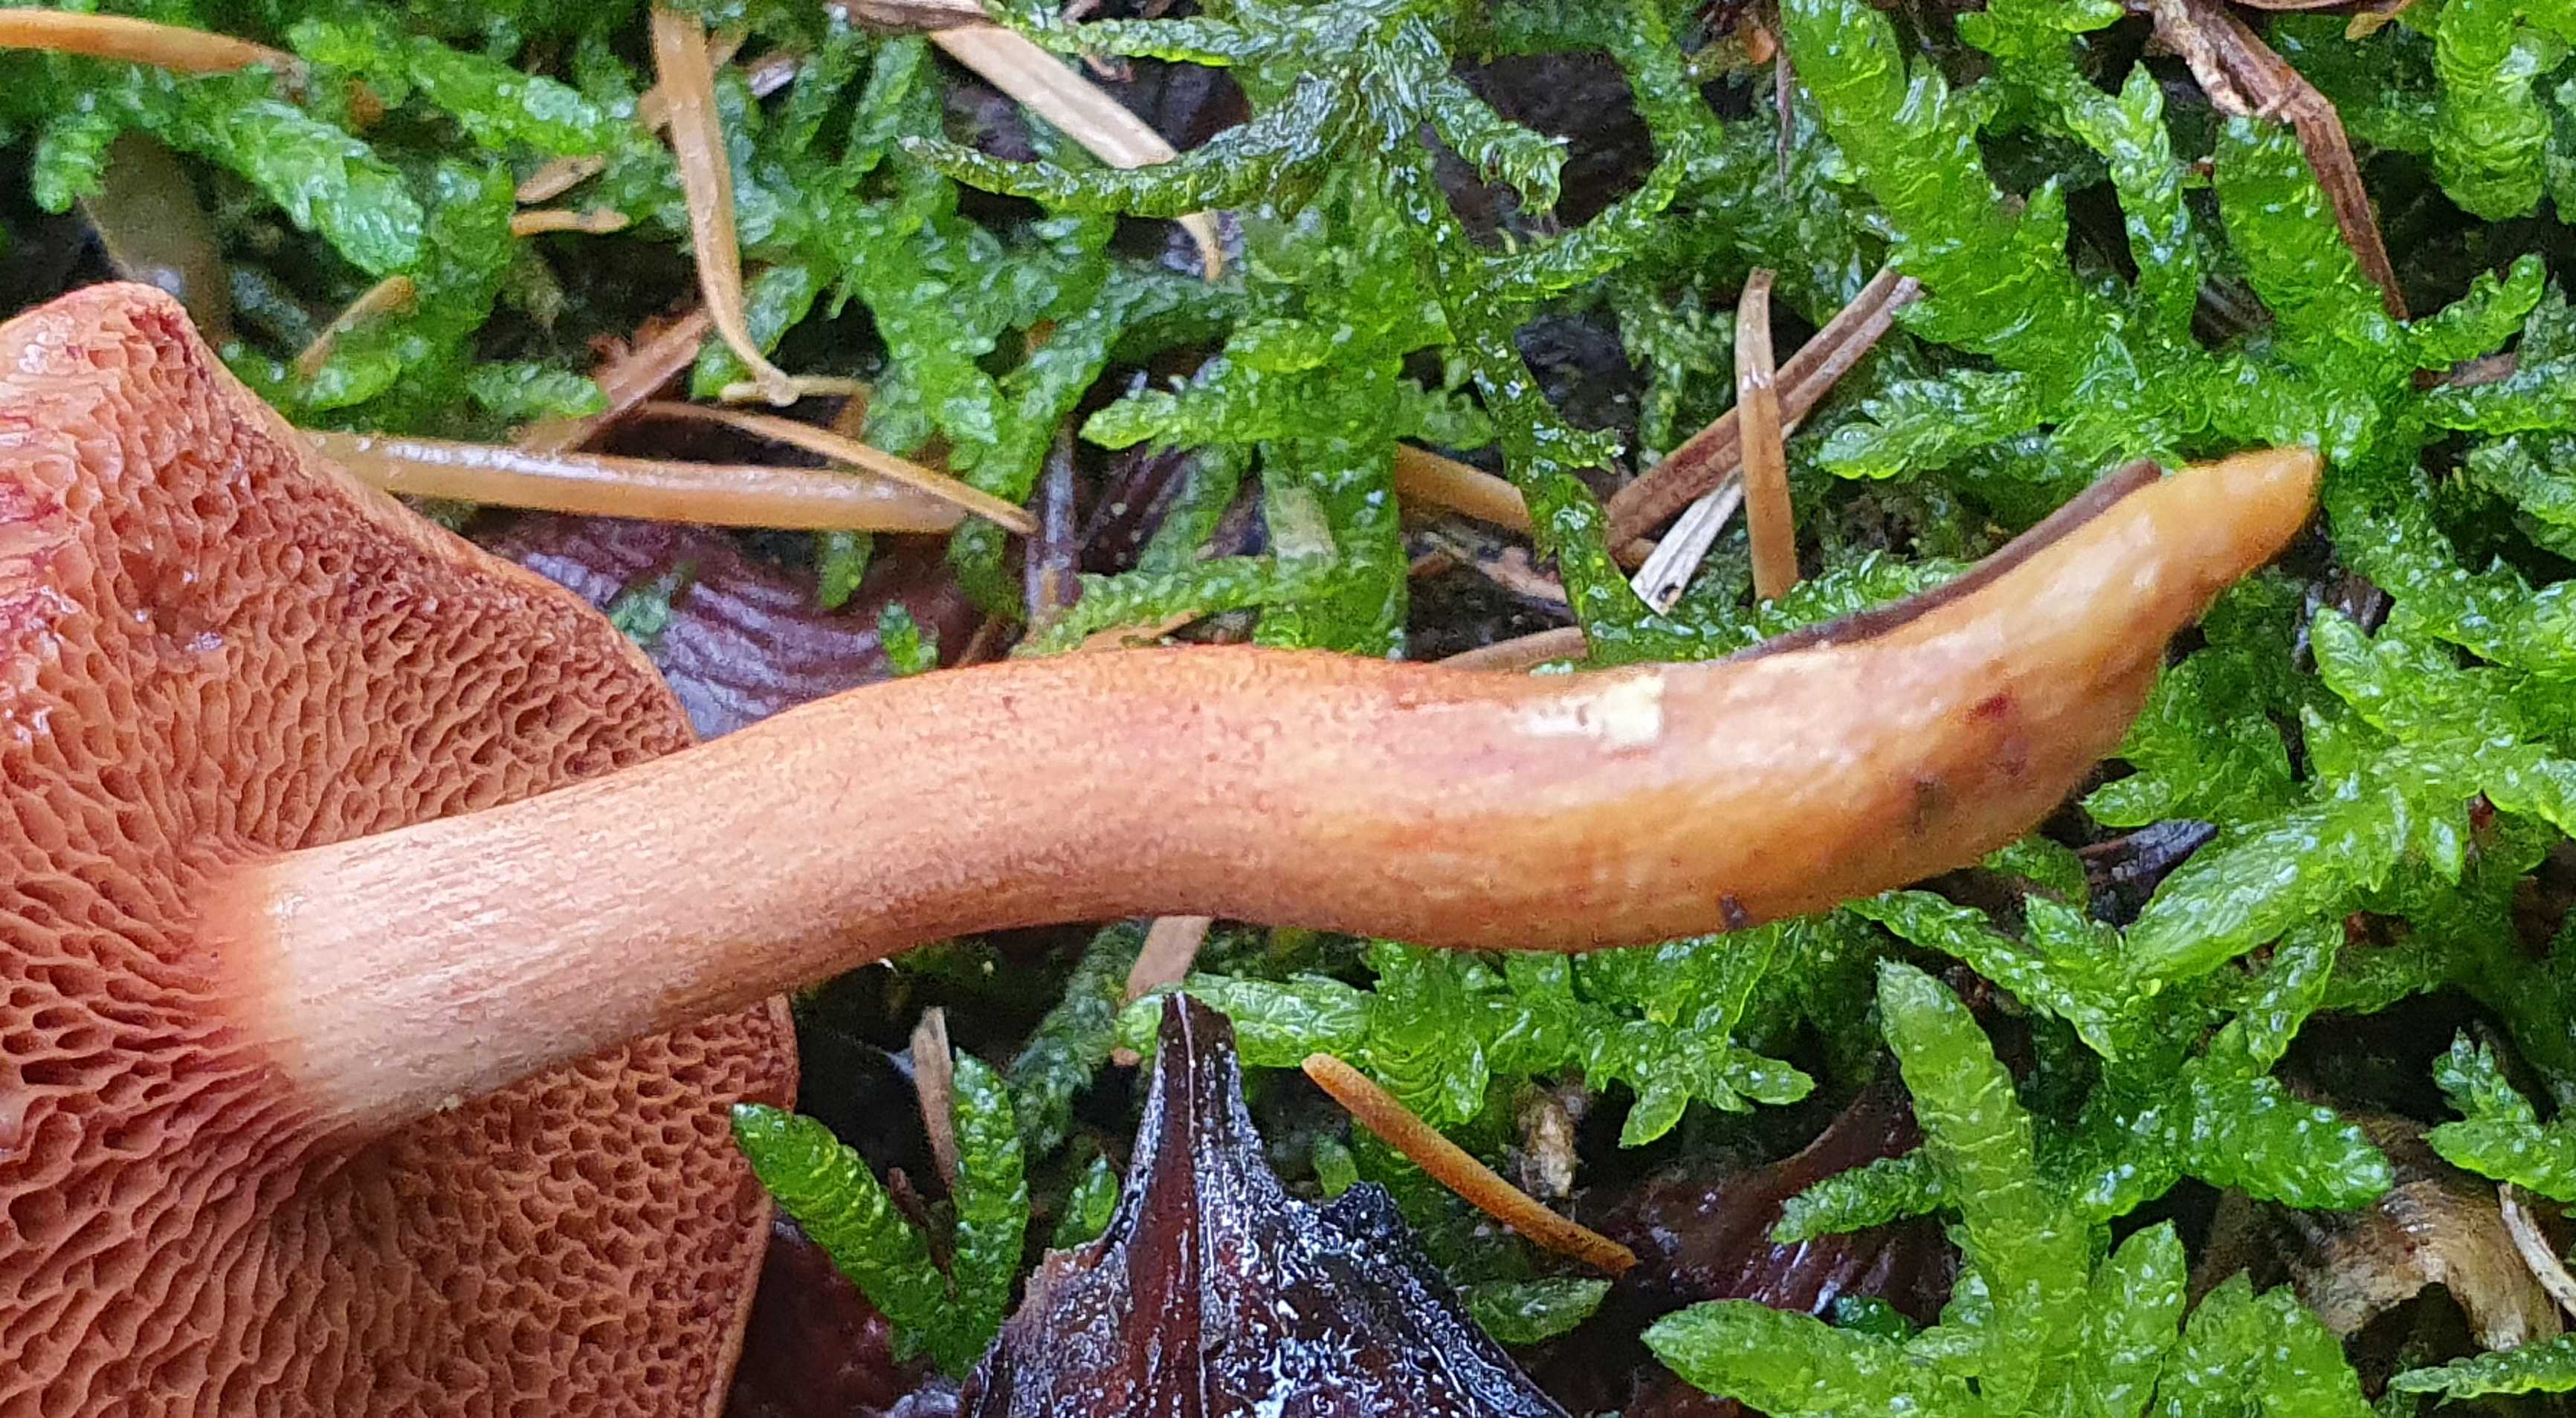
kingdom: Fungi
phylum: Basidiomycota
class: Agaricomycetes
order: Boletales
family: Boletaceae
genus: Chalciporus
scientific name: Chalciporus piperatus
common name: peberrørhat
